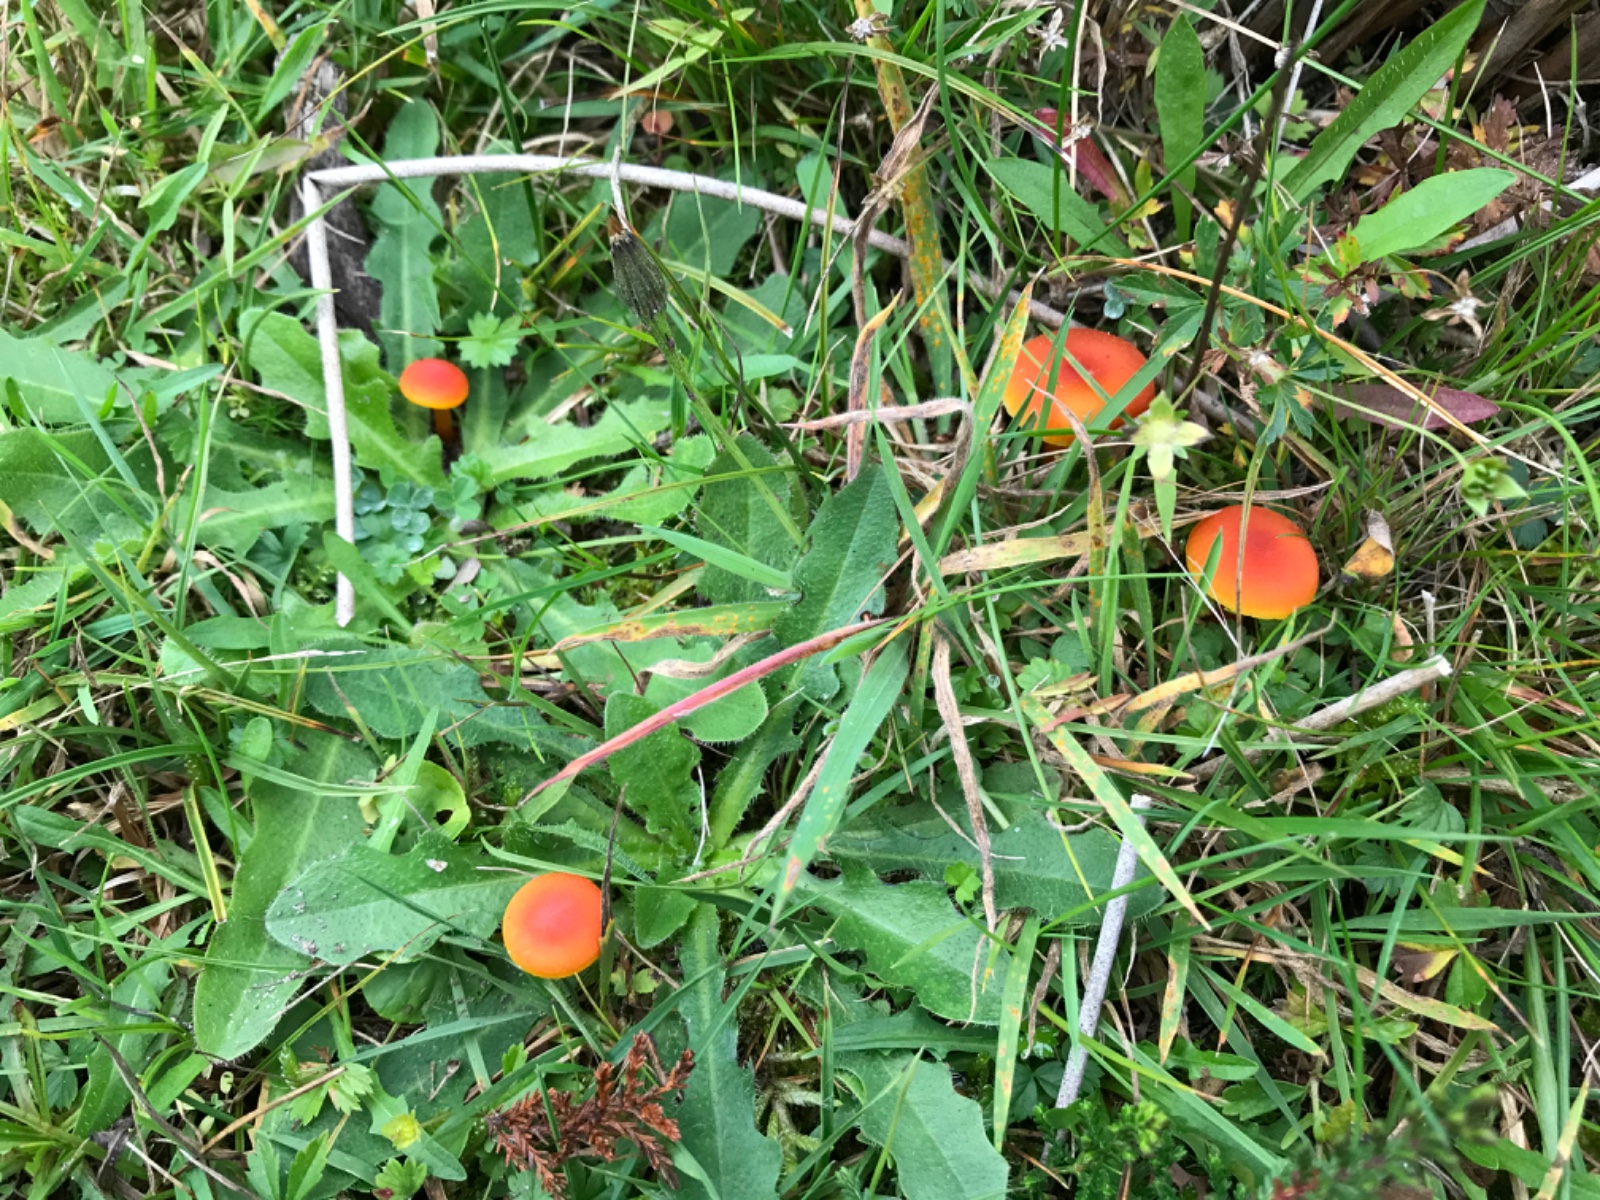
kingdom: Fungi
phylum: Basidiomycota
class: Agaricomycetes
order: Agaricales
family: Hygrophoraceae
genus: Hygrocybe
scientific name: Hygrocybe
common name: vokshat
